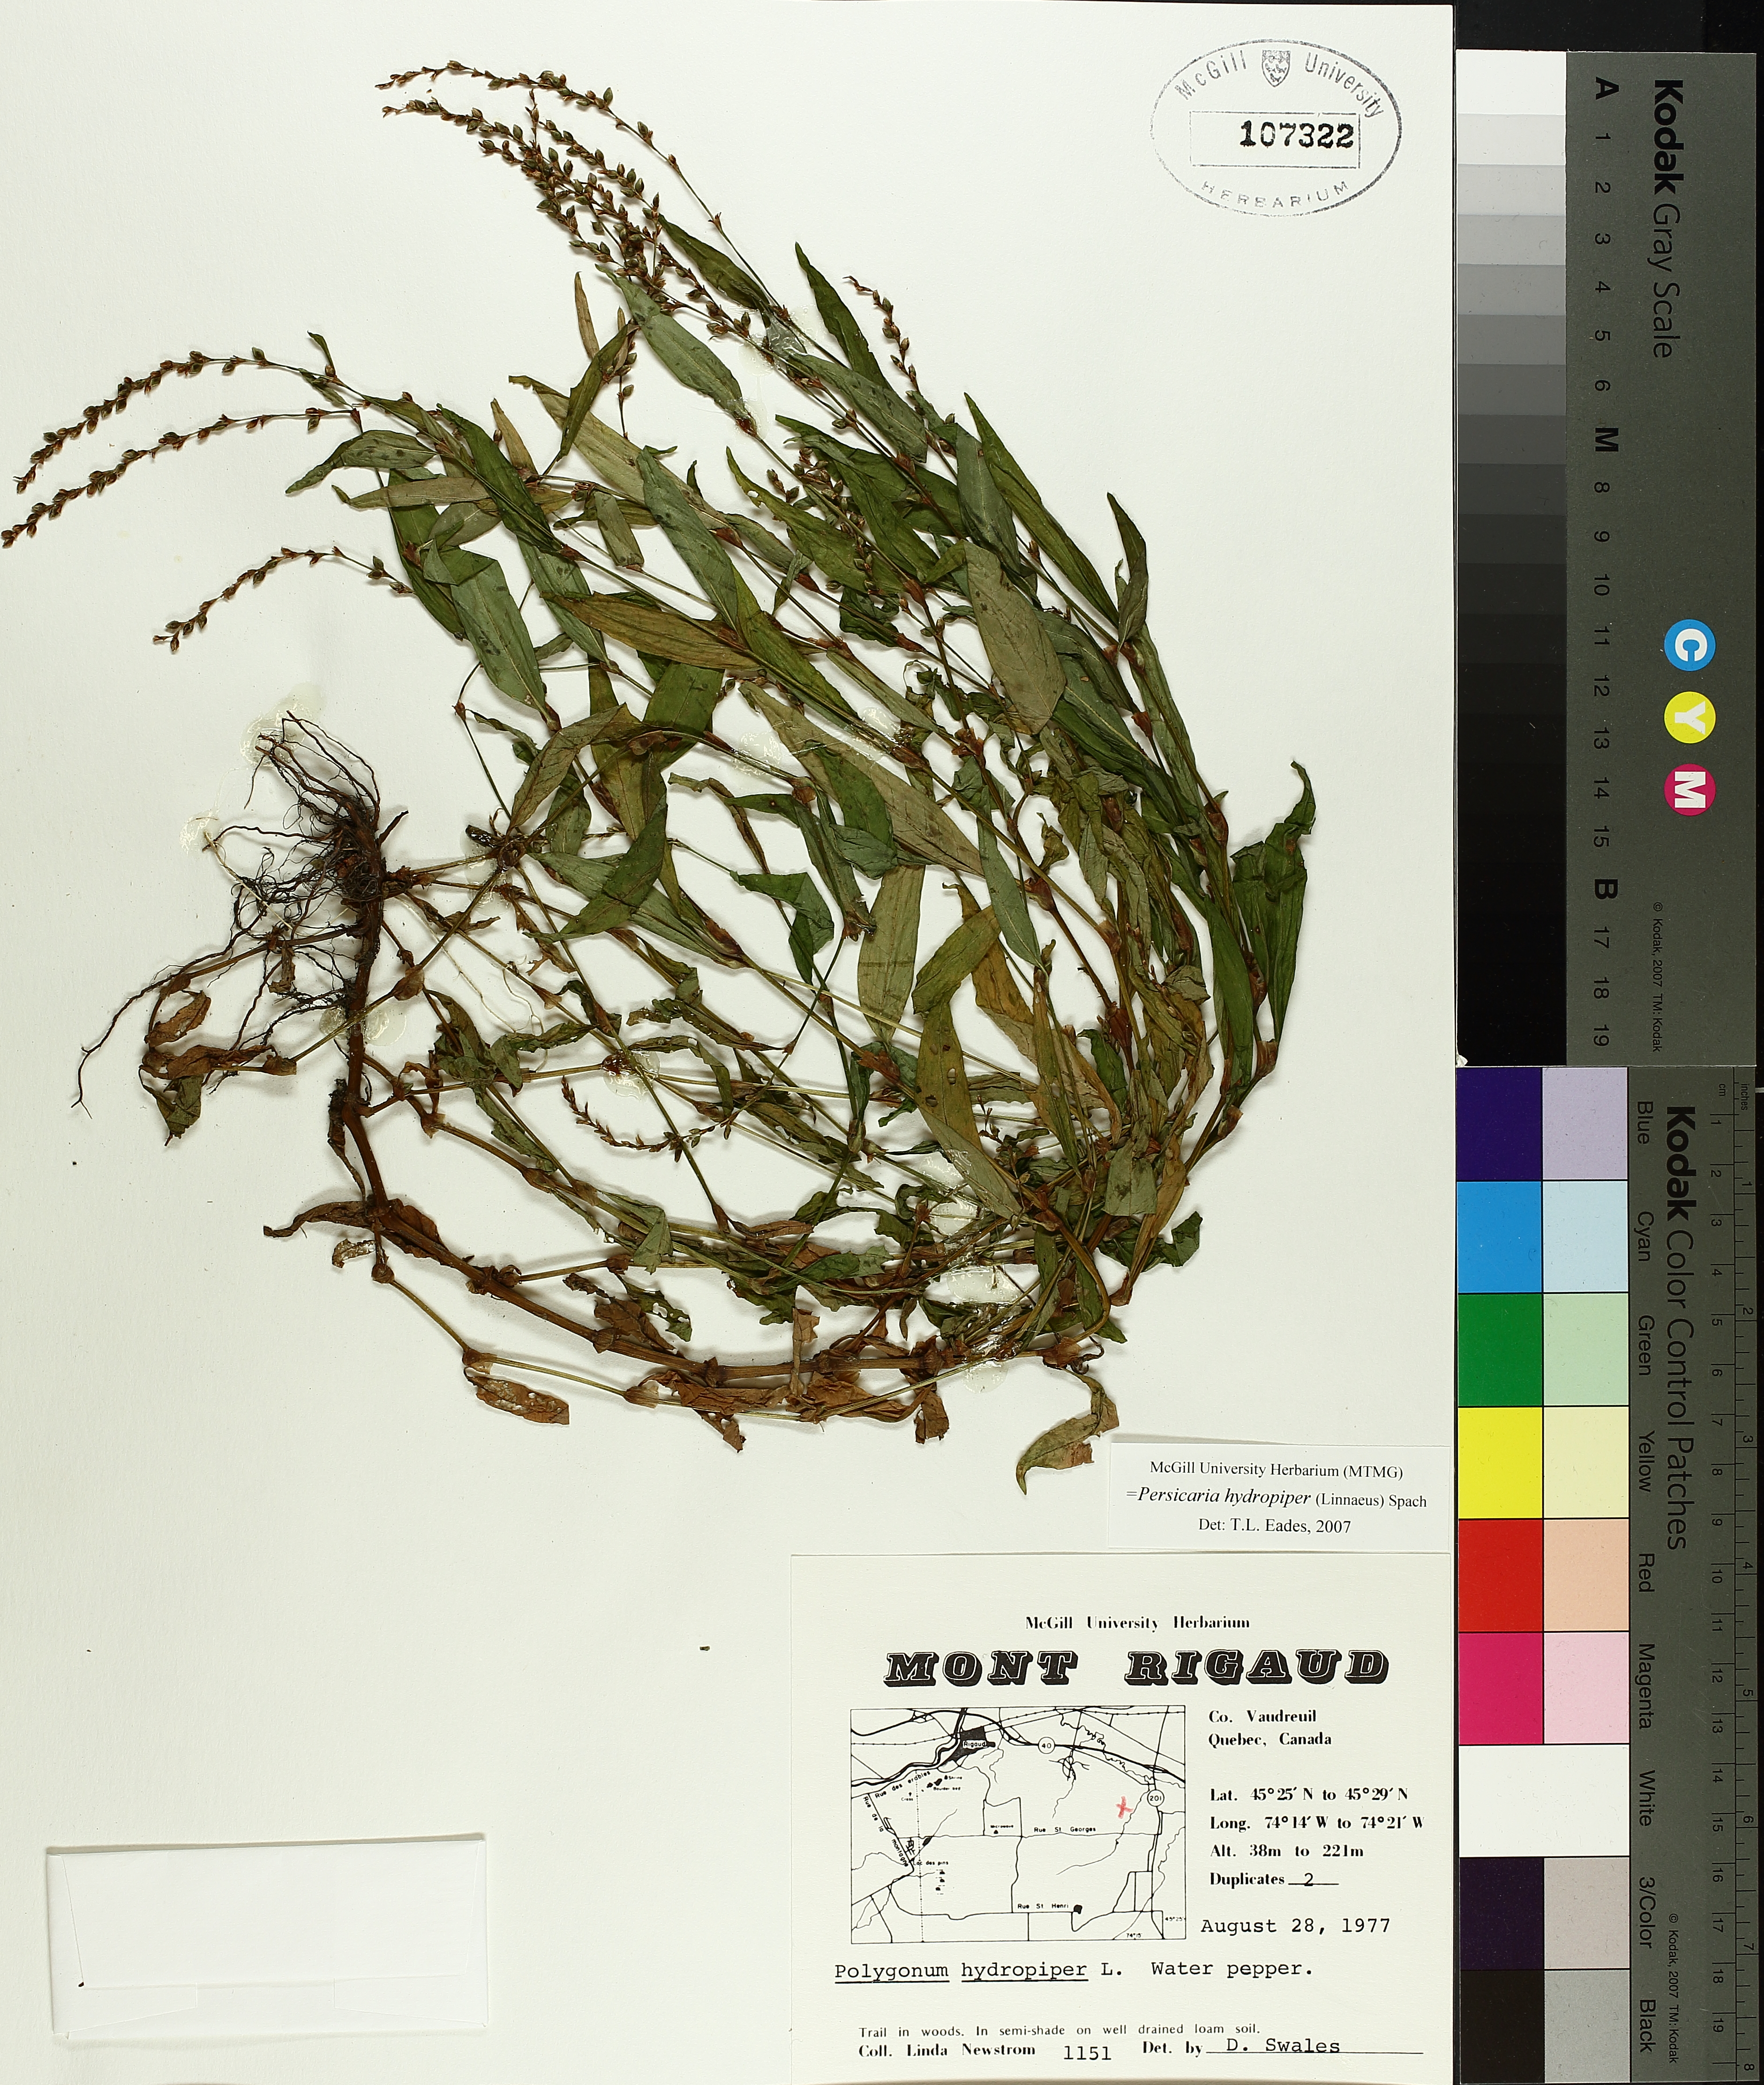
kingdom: Plantae
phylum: Tracheophyta
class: Magnoliopsida
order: Caryophyllales
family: Polygonaceae
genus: Persicaria
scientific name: Persicaria hydropiper
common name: Water-pepper
